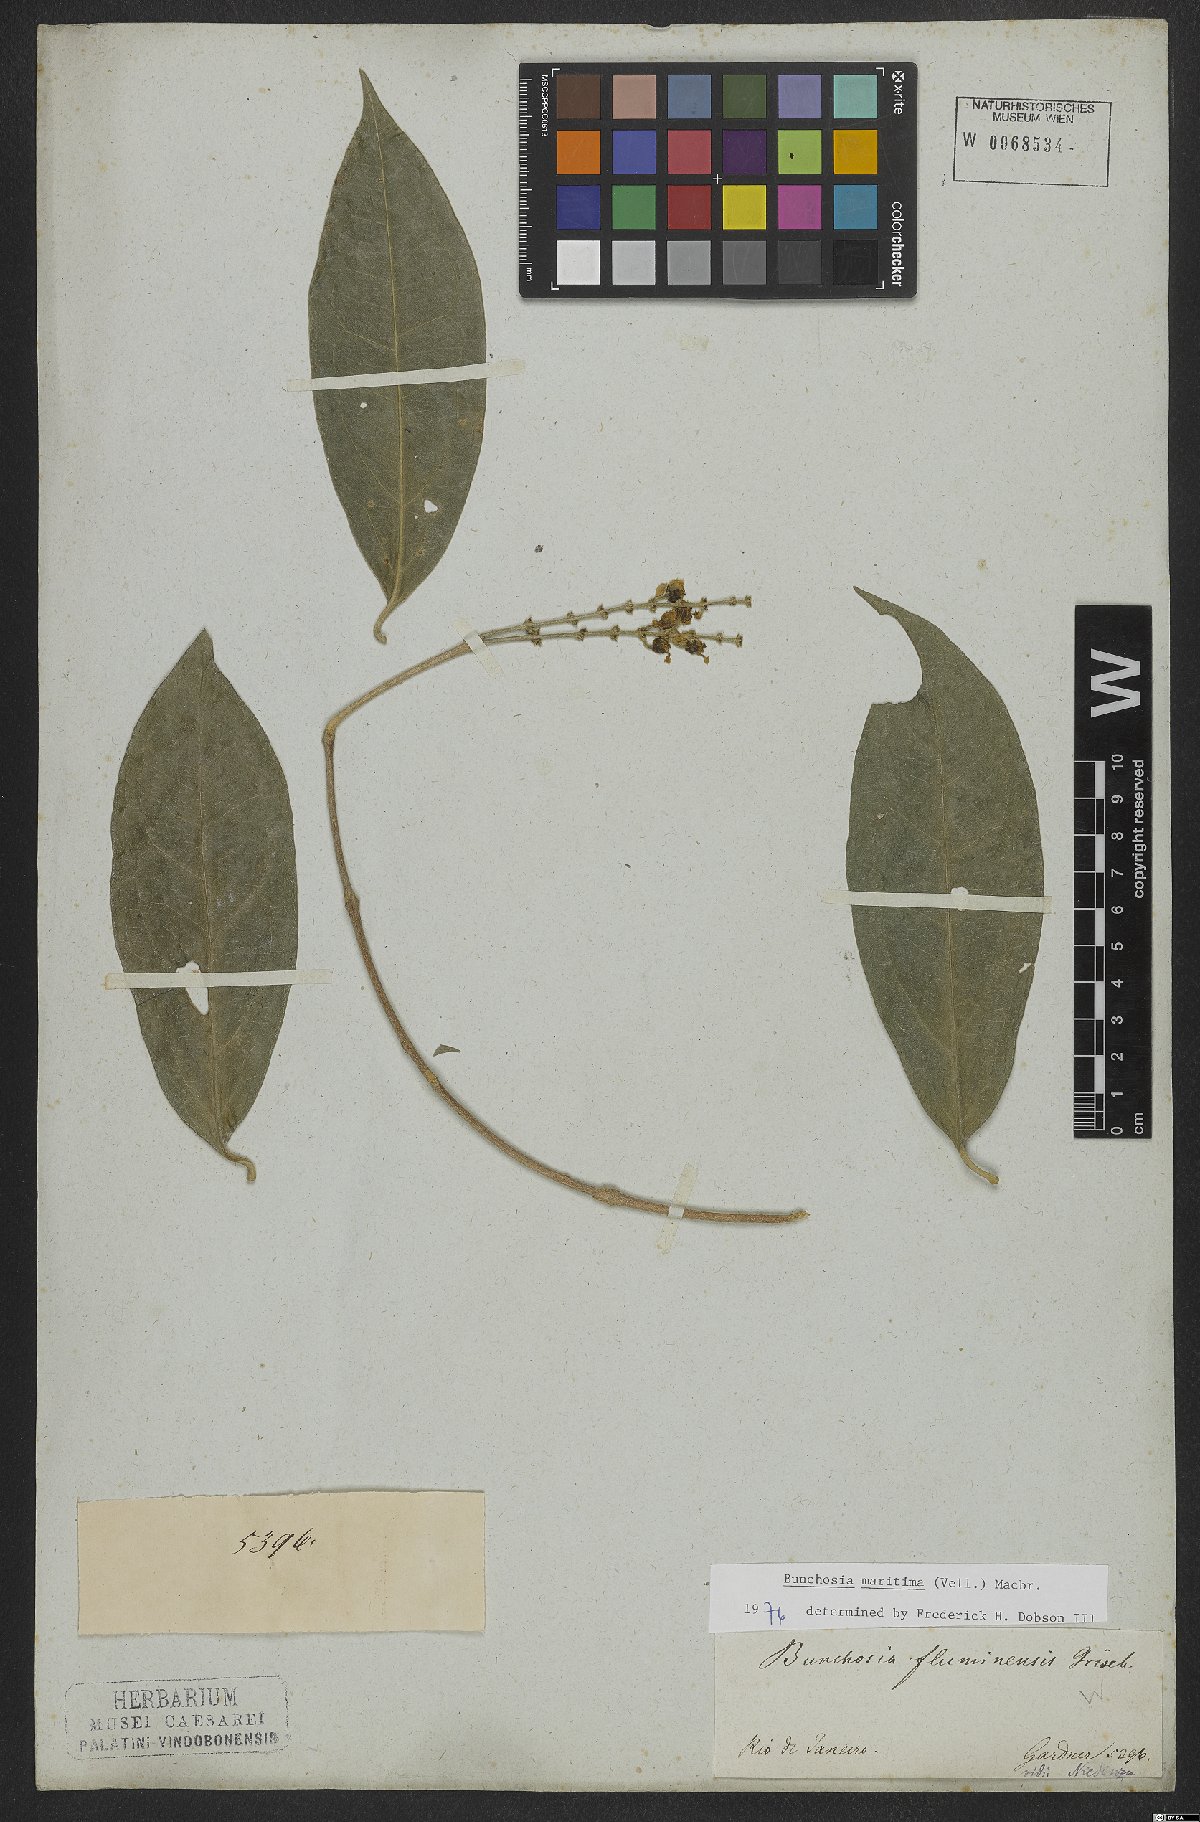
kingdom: Plantae
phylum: Tracheophyta
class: Magnoliopsida
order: Malpighiales
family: Malpighiaceae
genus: Bunchosia
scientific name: Bunchosia maritima
